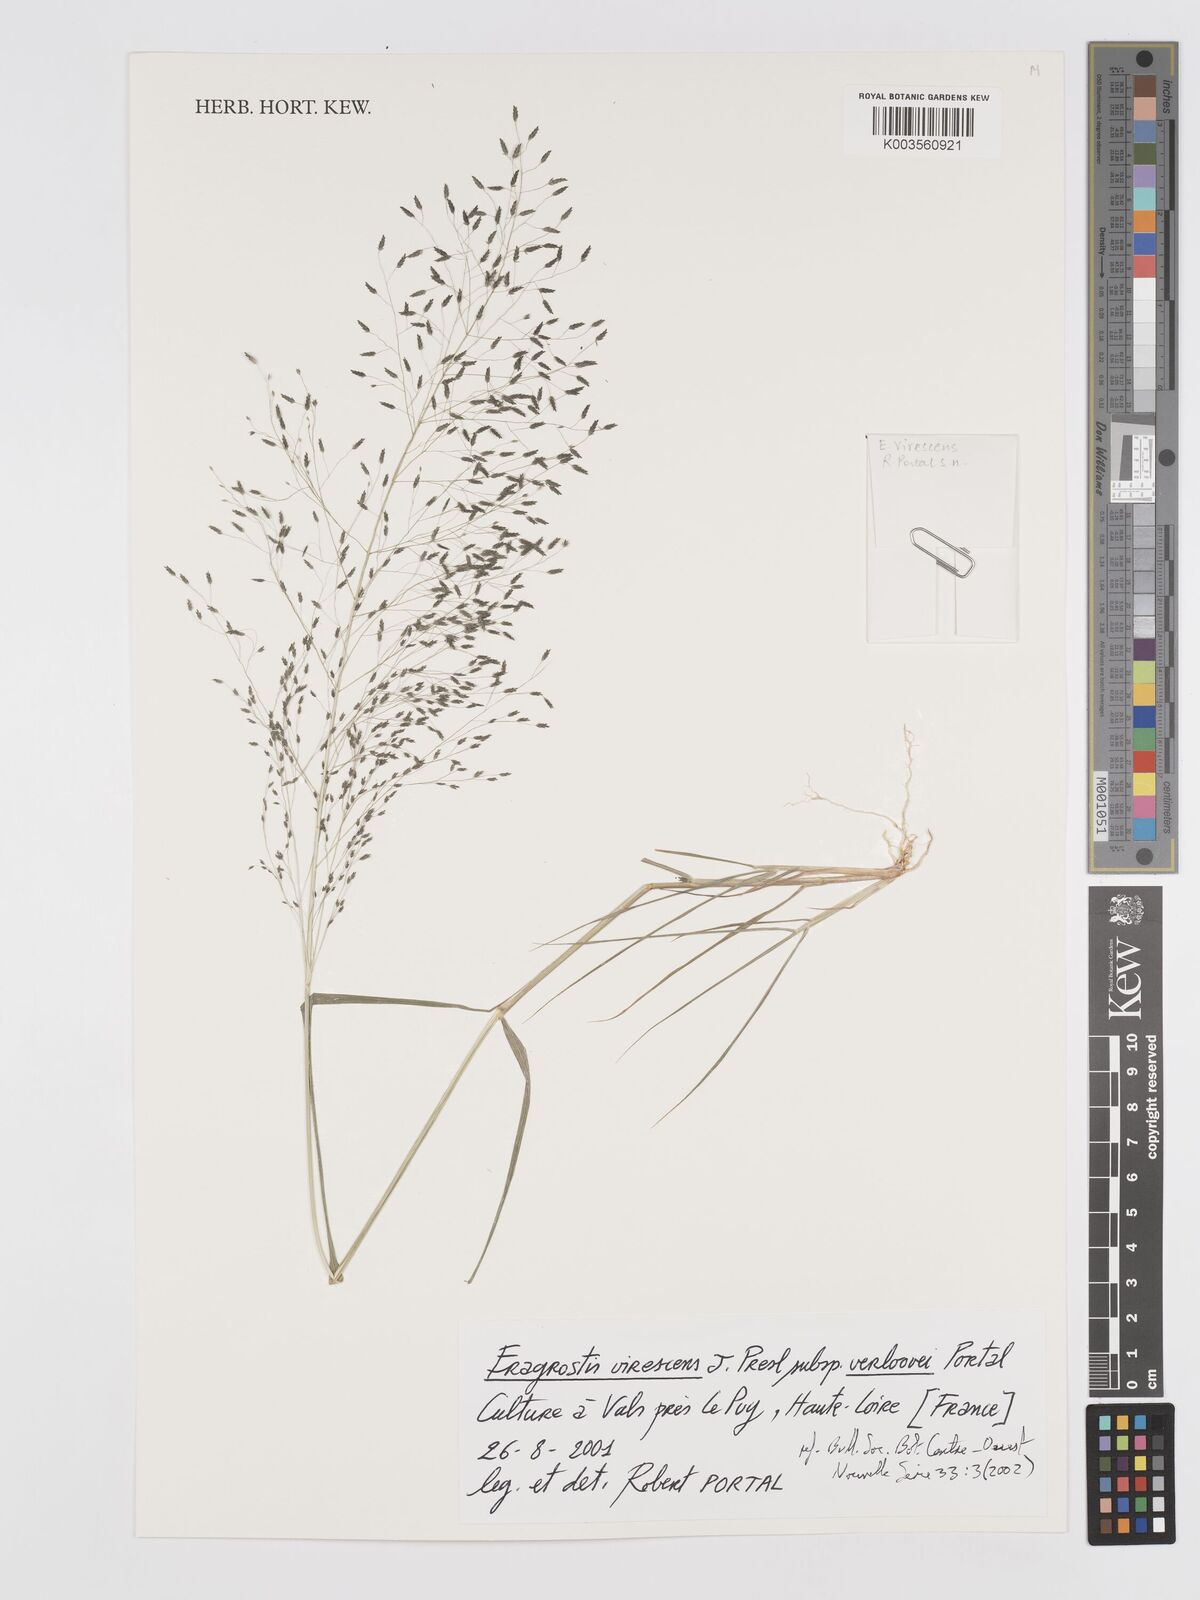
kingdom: Plantae
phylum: Tracheophyta
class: Liliopsida
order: Poales
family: Poaceae
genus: Eragrostis
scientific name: Eragrostis mexicana
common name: Mexican love grass
